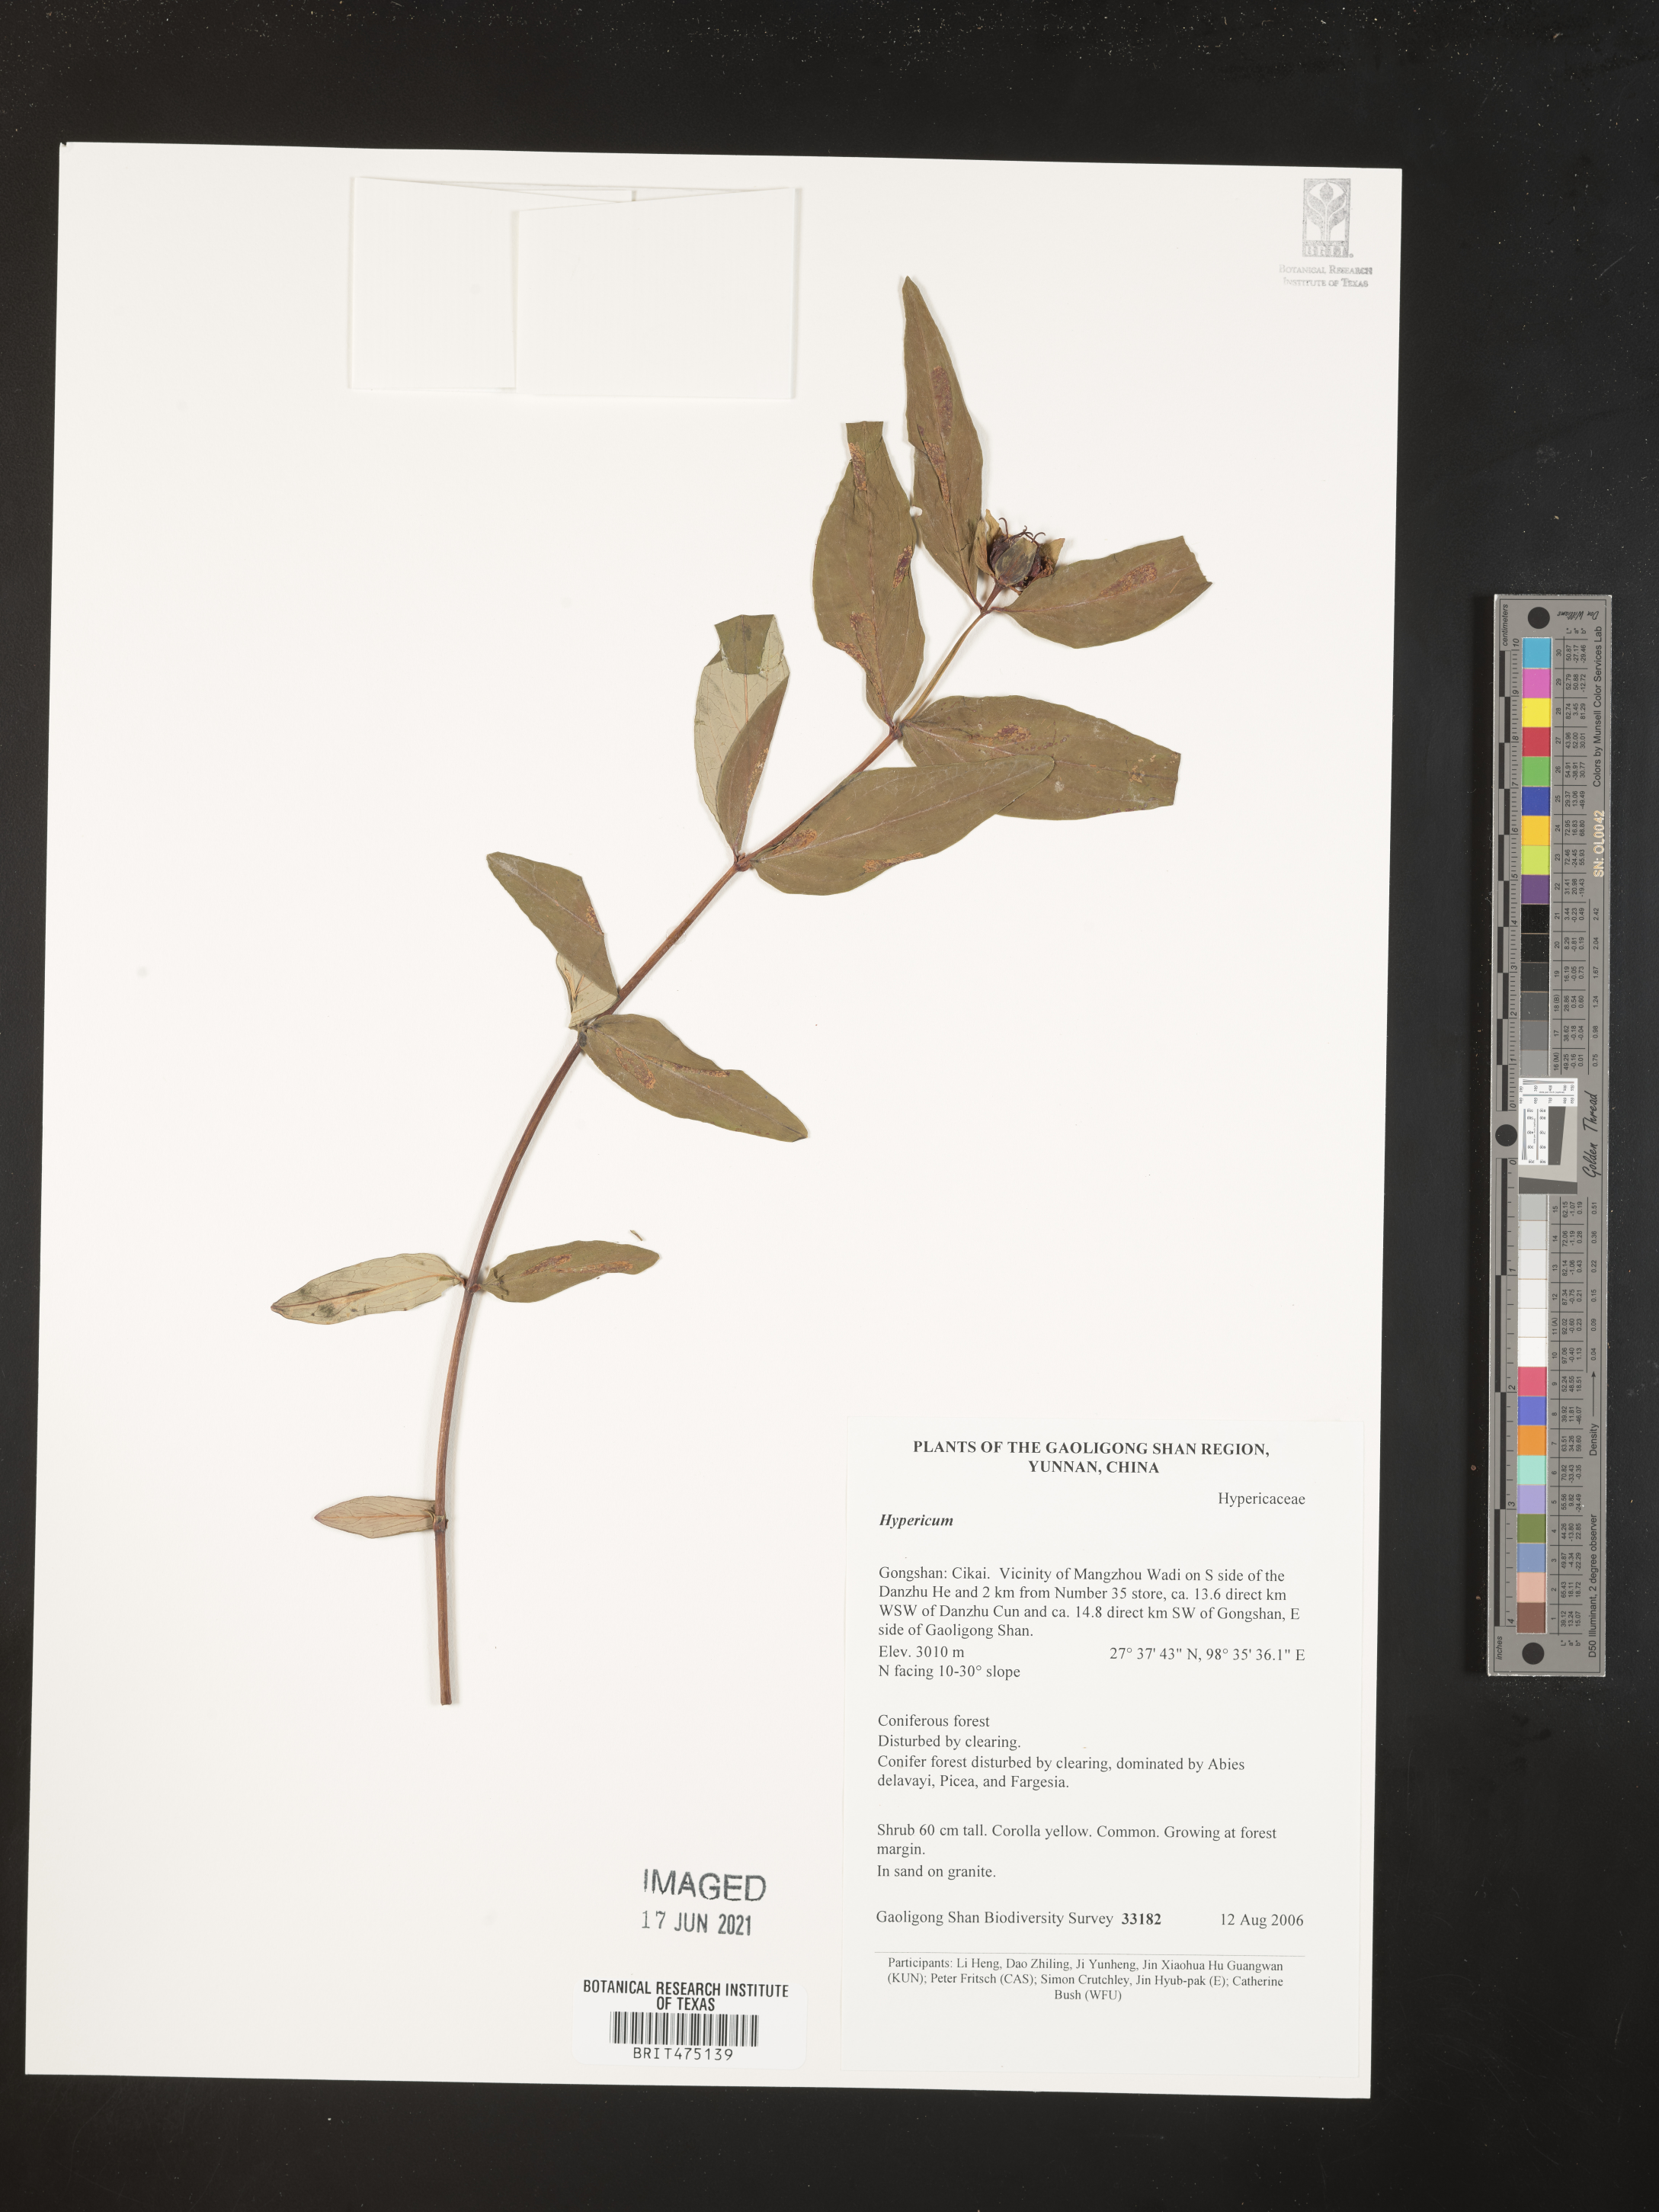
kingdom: Plantae
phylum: Tracheophyta
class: Magnoliopsida
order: Myrtales
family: Onagraceae
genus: Epilobium
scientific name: Epilobium amurense
